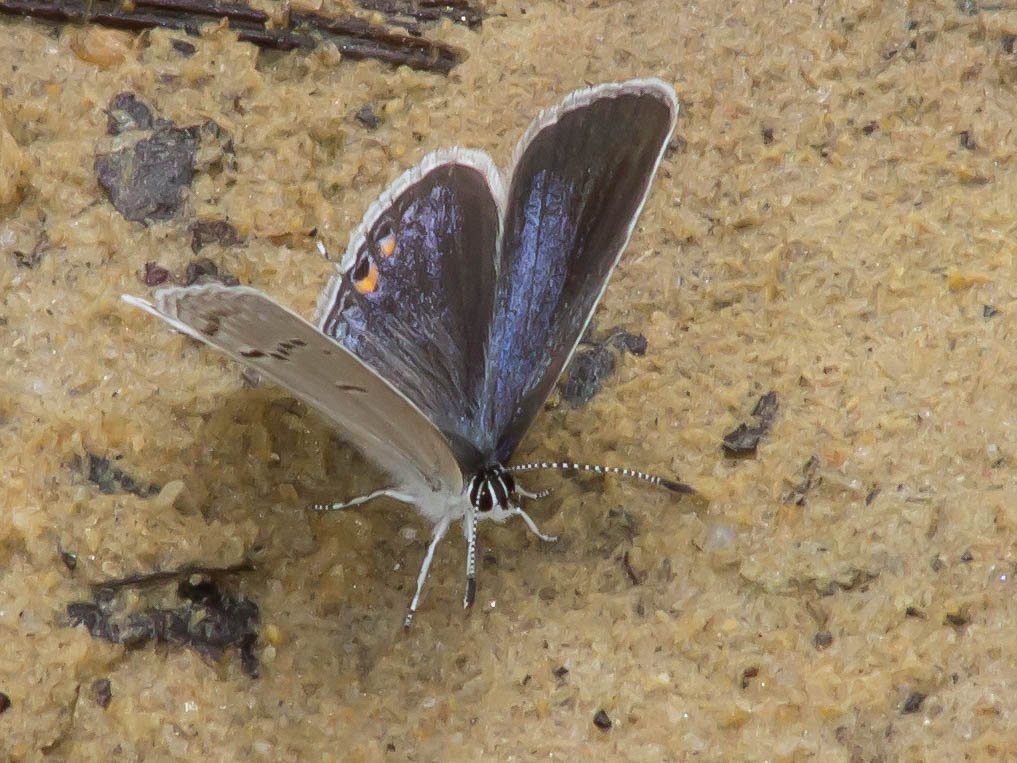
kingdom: Animalia
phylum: Arthropoda
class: Insecta
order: Lepidoptera
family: Lycaenidae
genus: Elkalyce
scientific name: Elkalyce comyntas
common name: Eastern Tailed-Blue
